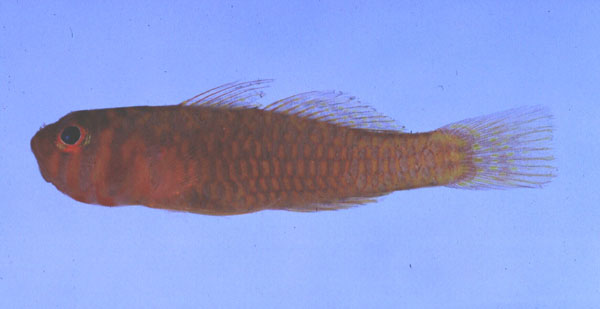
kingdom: Animalia
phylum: Chordata
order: Perciformes
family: Gobiidae
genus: Trimma
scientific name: Trimma okinawae
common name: Okinawa dwarfgoby
